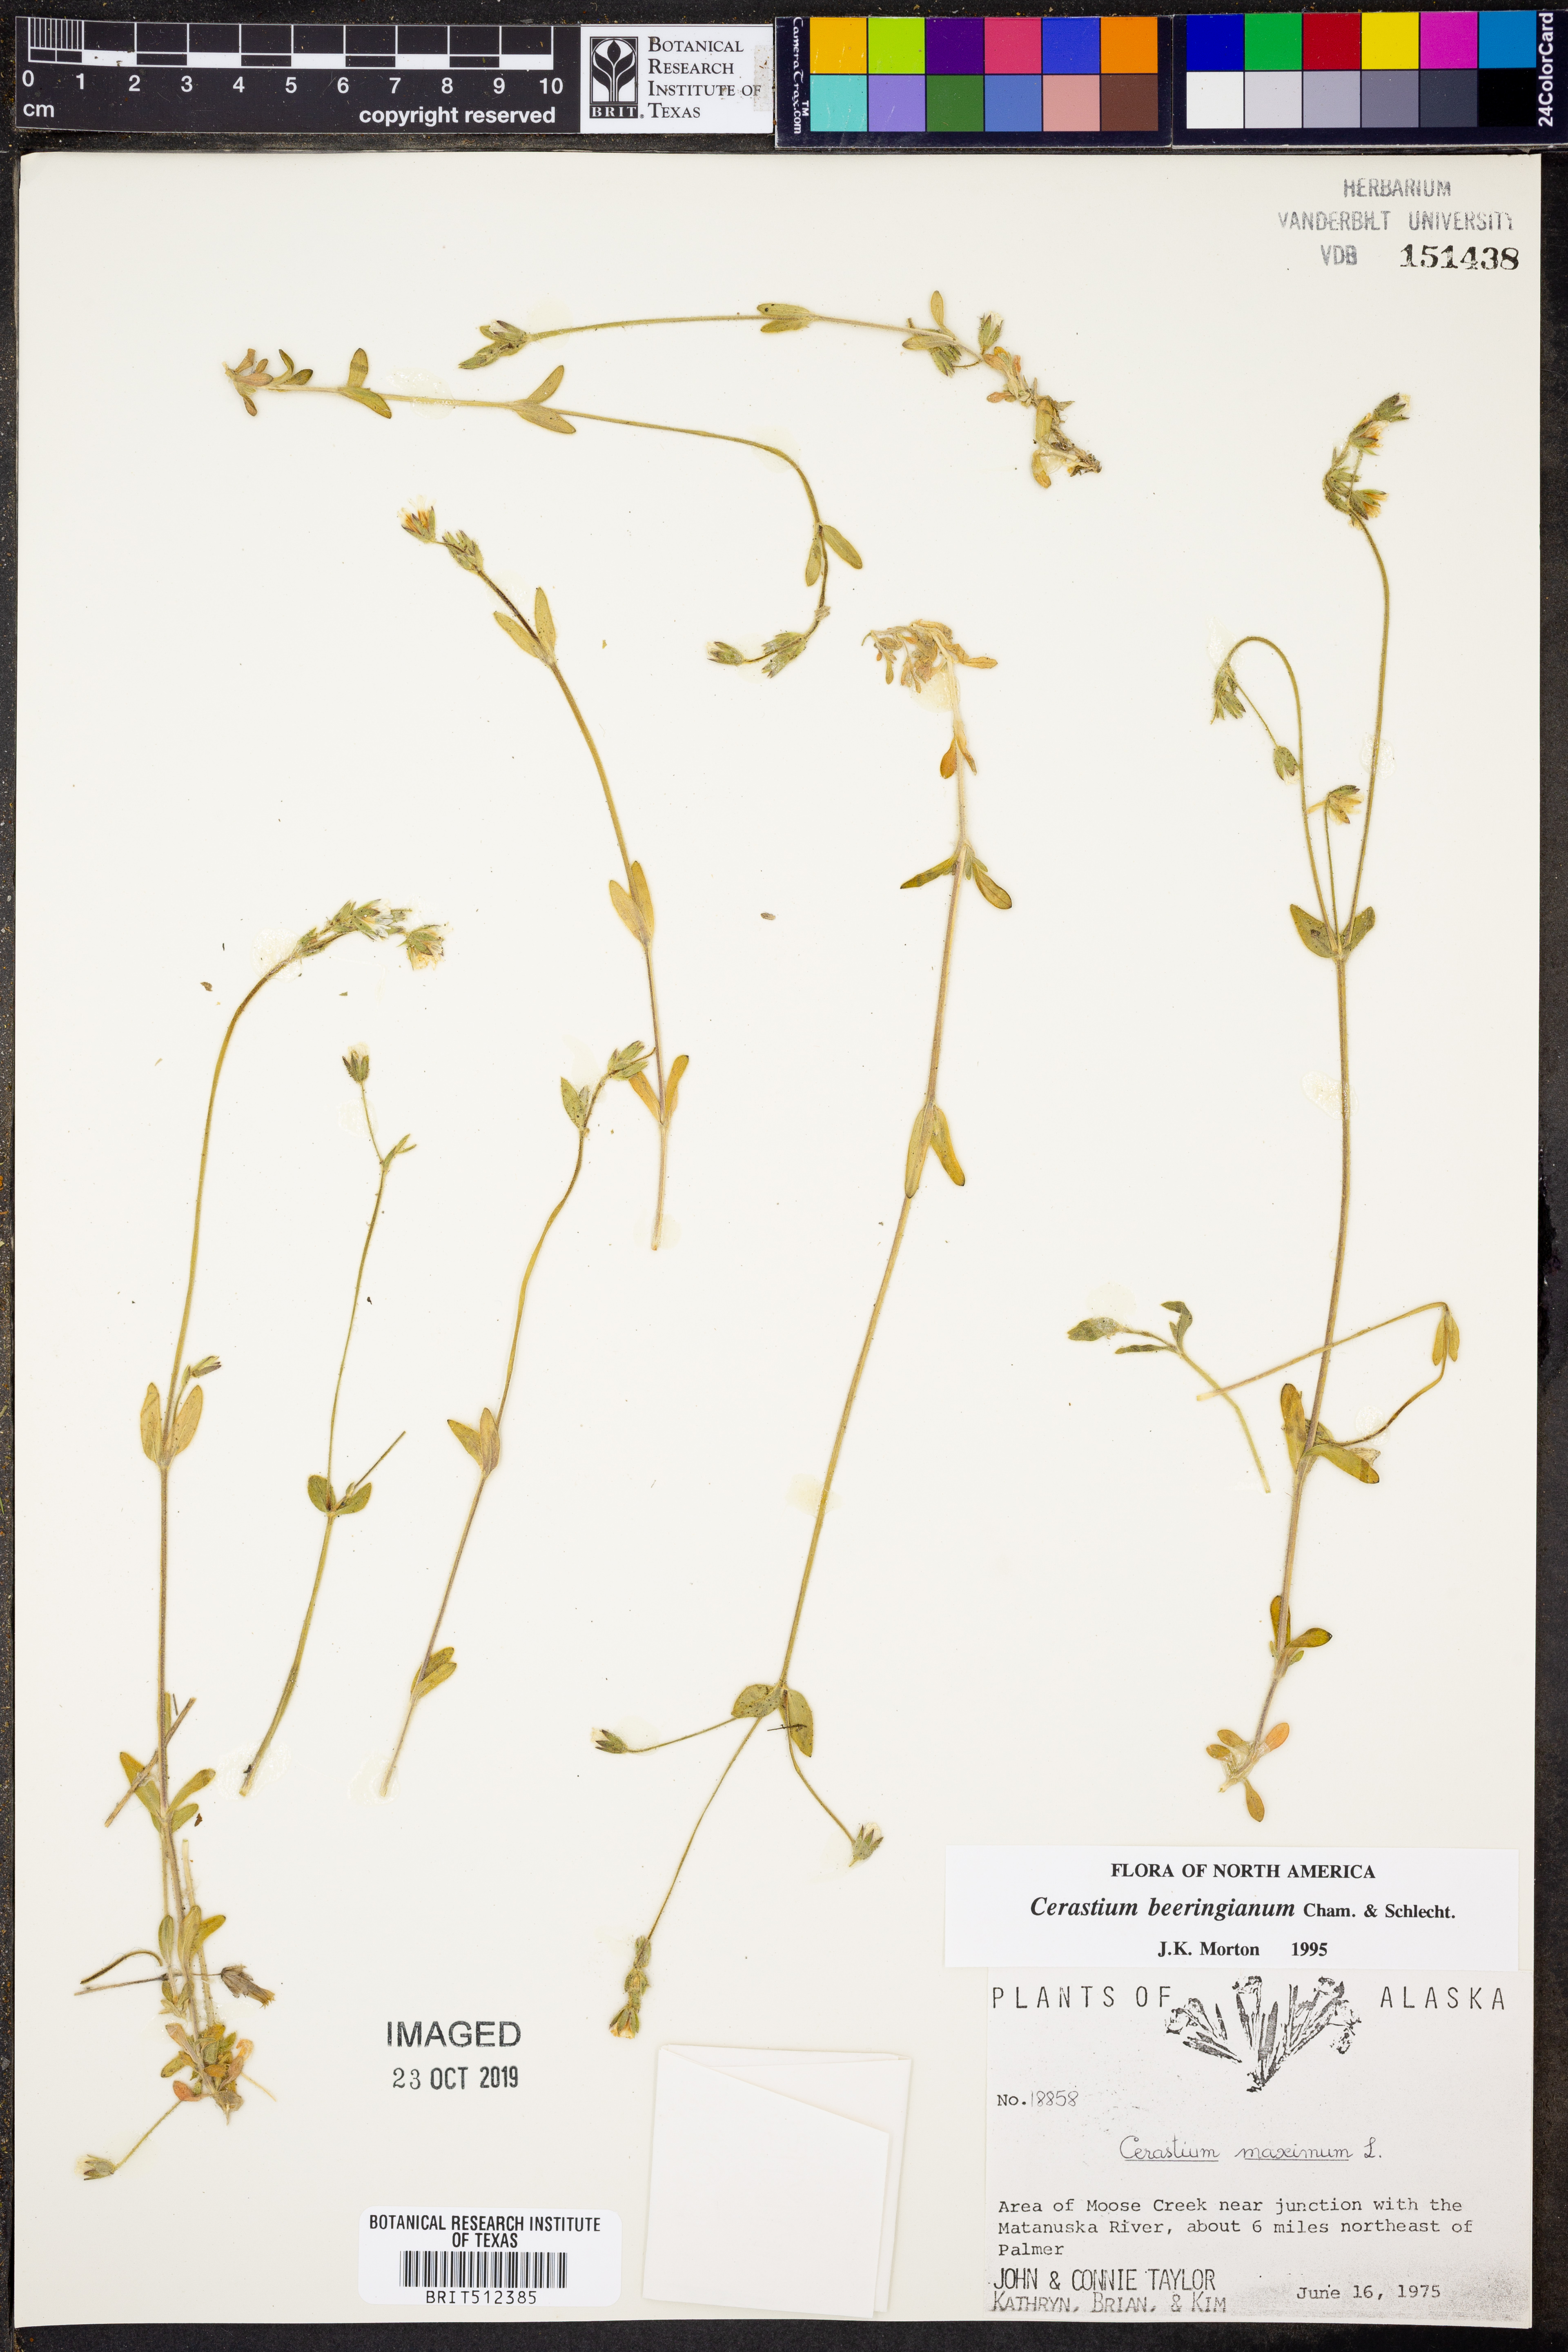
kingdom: Plantae
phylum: Tracheophyta
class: Magnoliopsida
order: Caryophyllales
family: Caryophyllaceae
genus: Cerastium
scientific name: Cerastium beeringianum
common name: Bering mouse-ear chickweed
